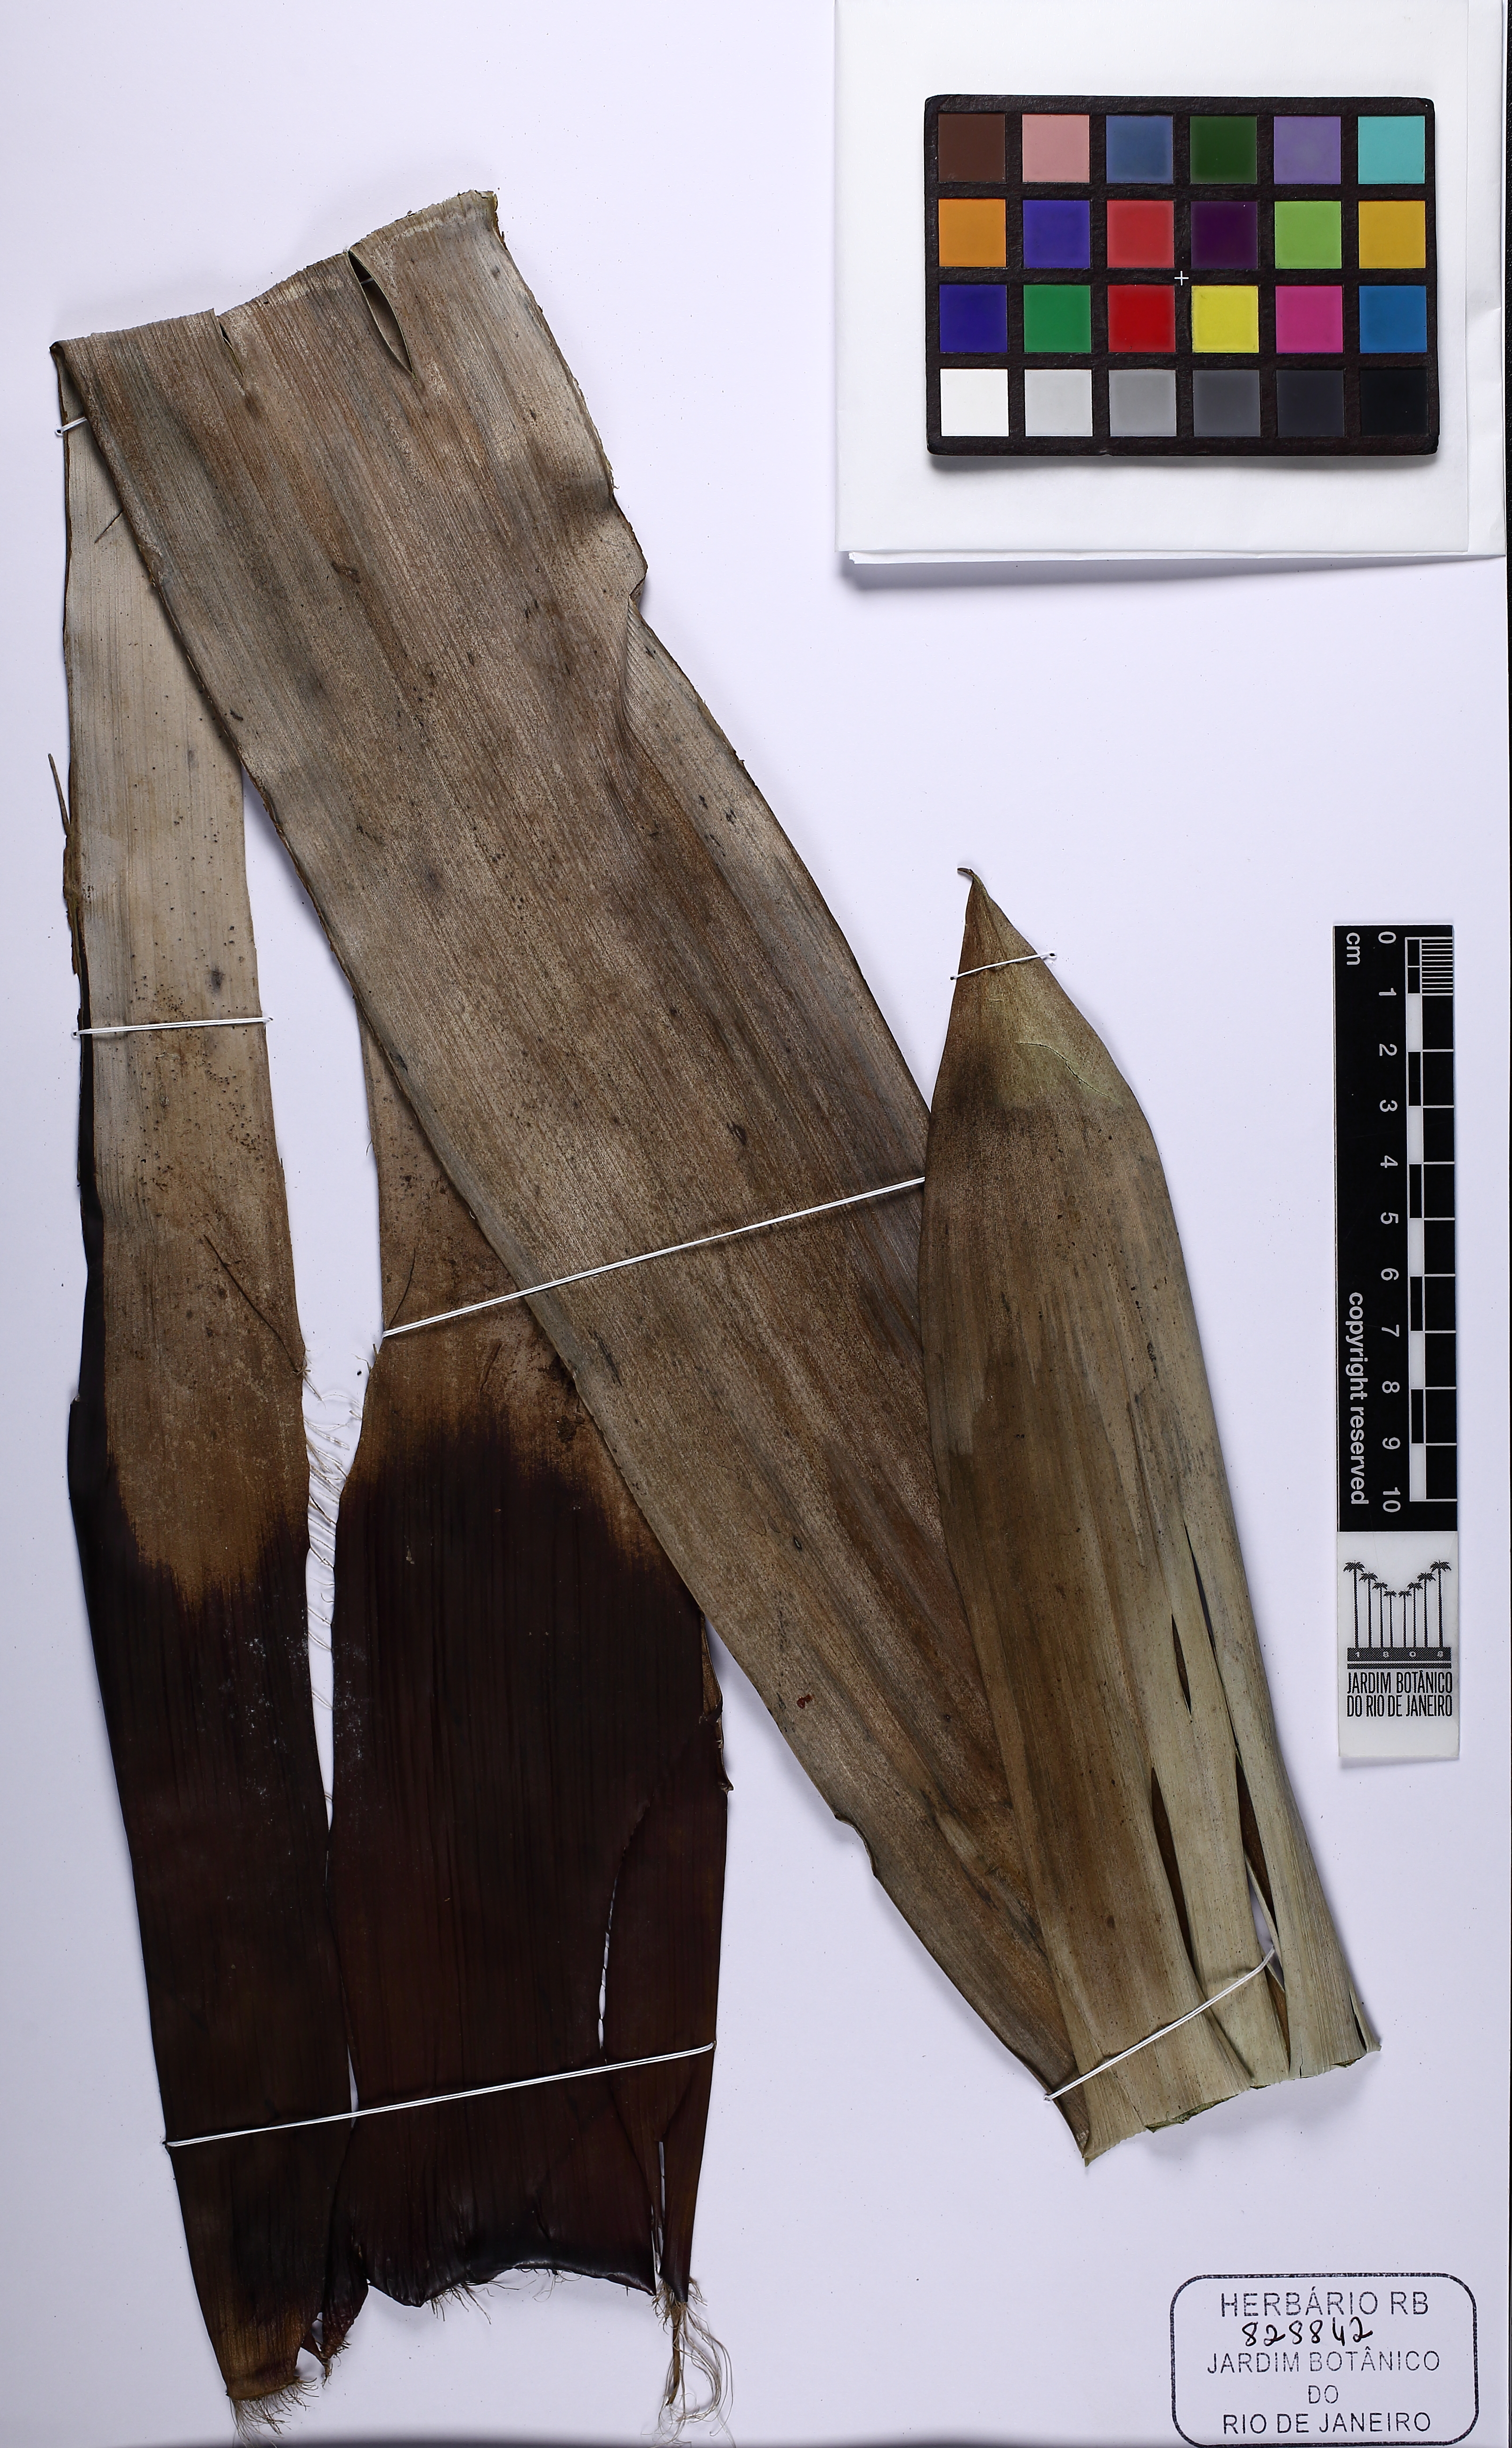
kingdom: Plantae
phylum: Tracheophyta
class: Liliopsida
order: Poales
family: Bromeliaceae
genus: Vriesea
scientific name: Vriesea gigantea
